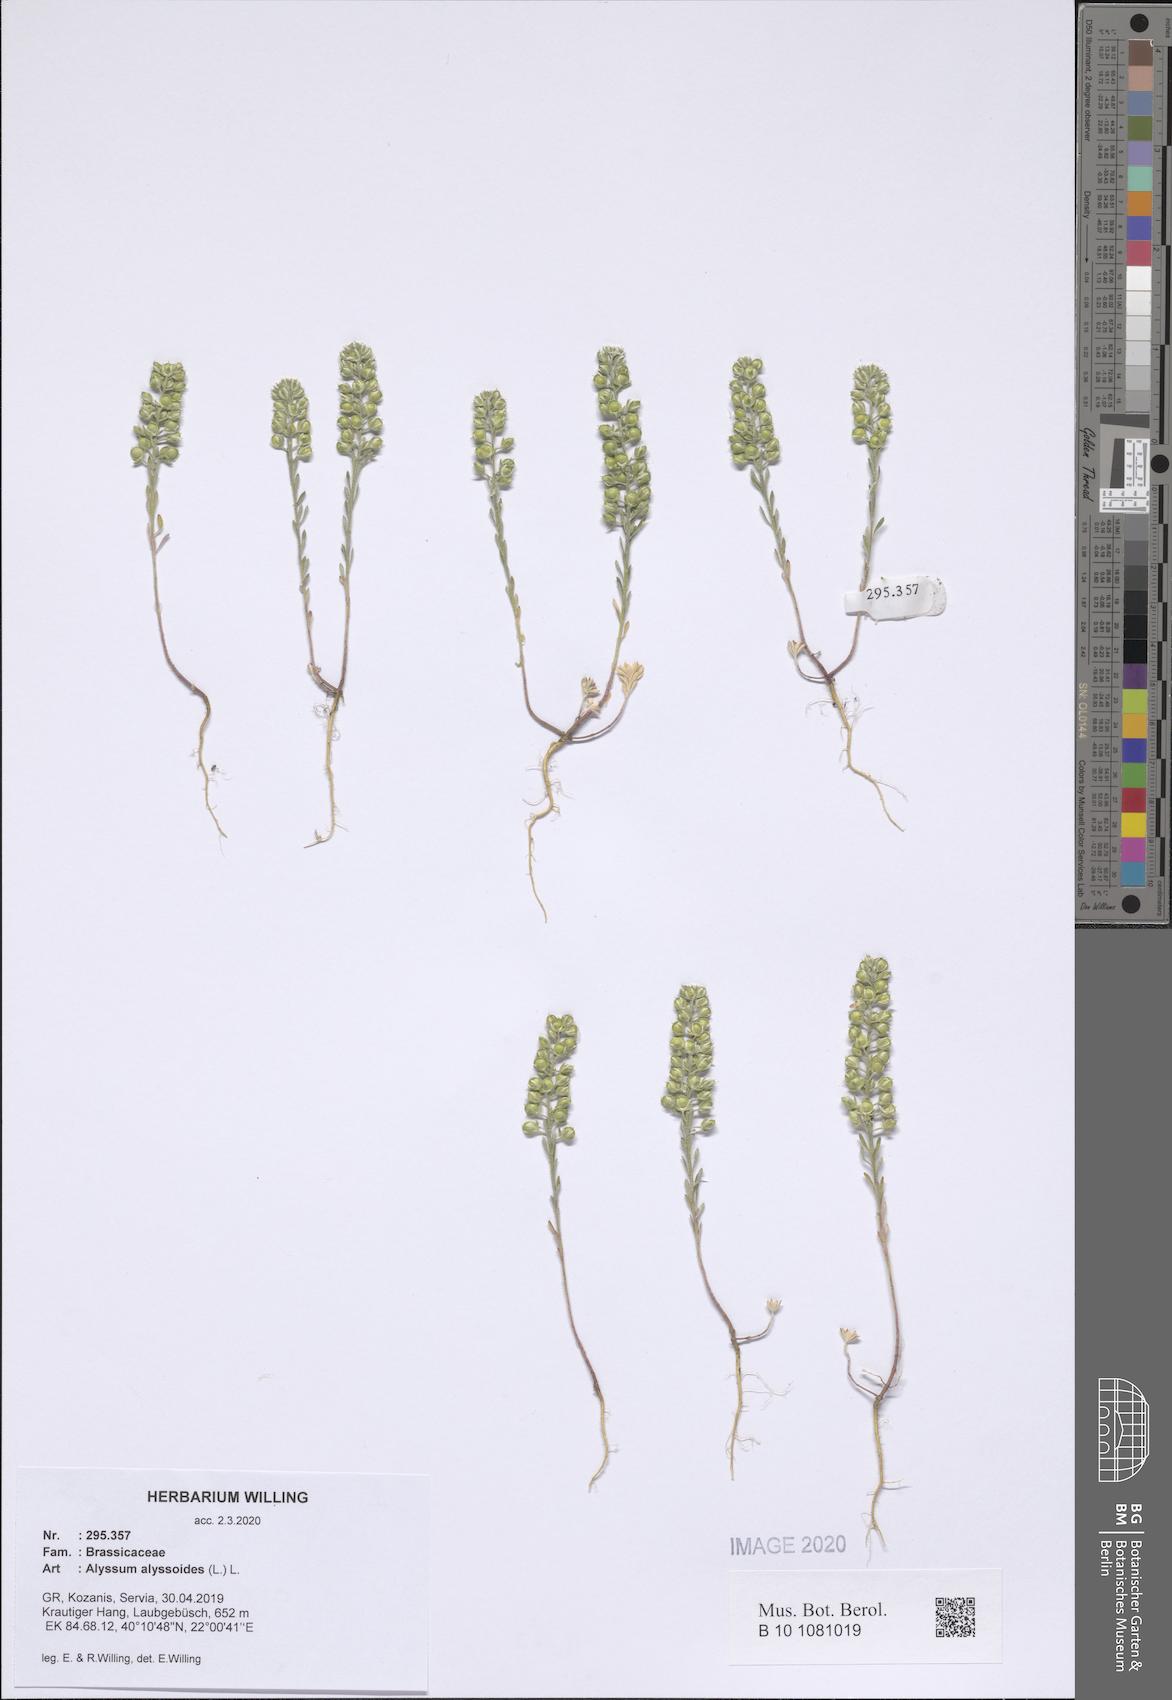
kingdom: Plantae
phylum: Tracheophyta
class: Magnoliopsida
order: Brassicales
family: Brassicaceae
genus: Alyssum
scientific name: Alyssum alyssoides
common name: Small alison
